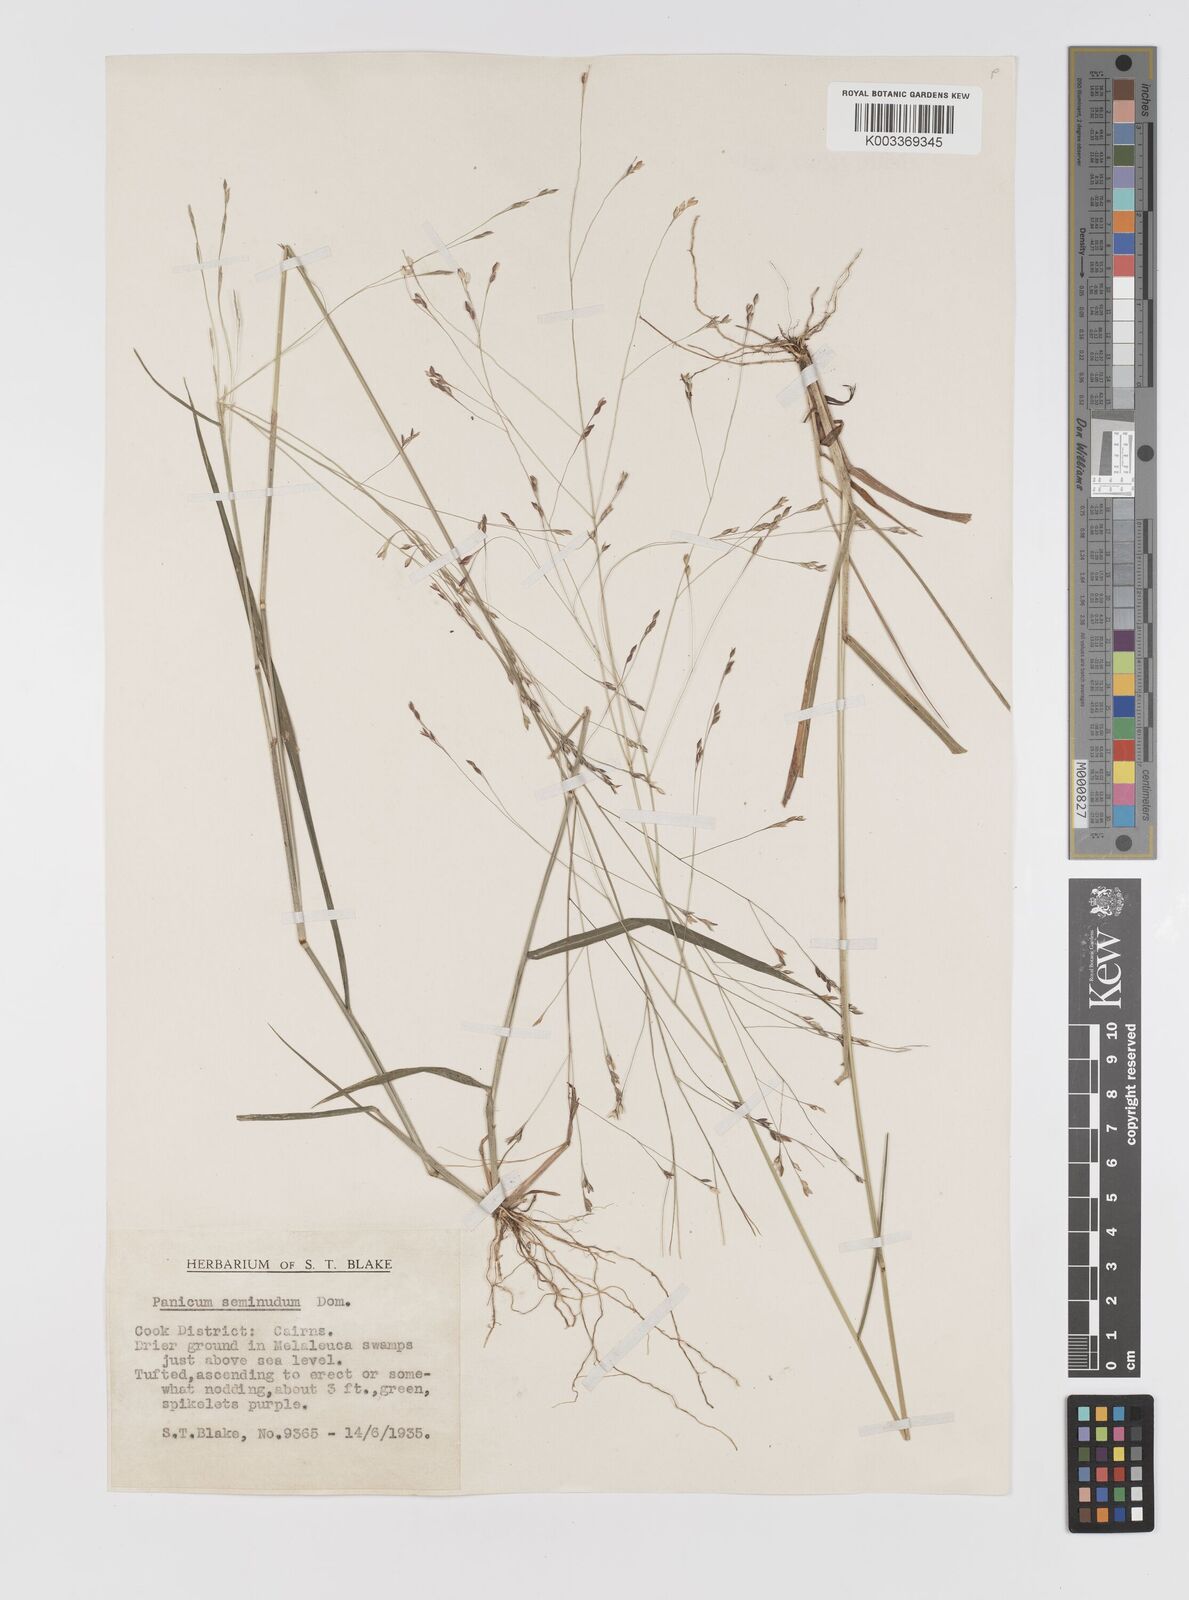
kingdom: Plantae
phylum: Tracheophyta
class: Liliopsida
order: Poales
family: Poaceae
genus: Panicum
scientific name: Panicum seminudum
